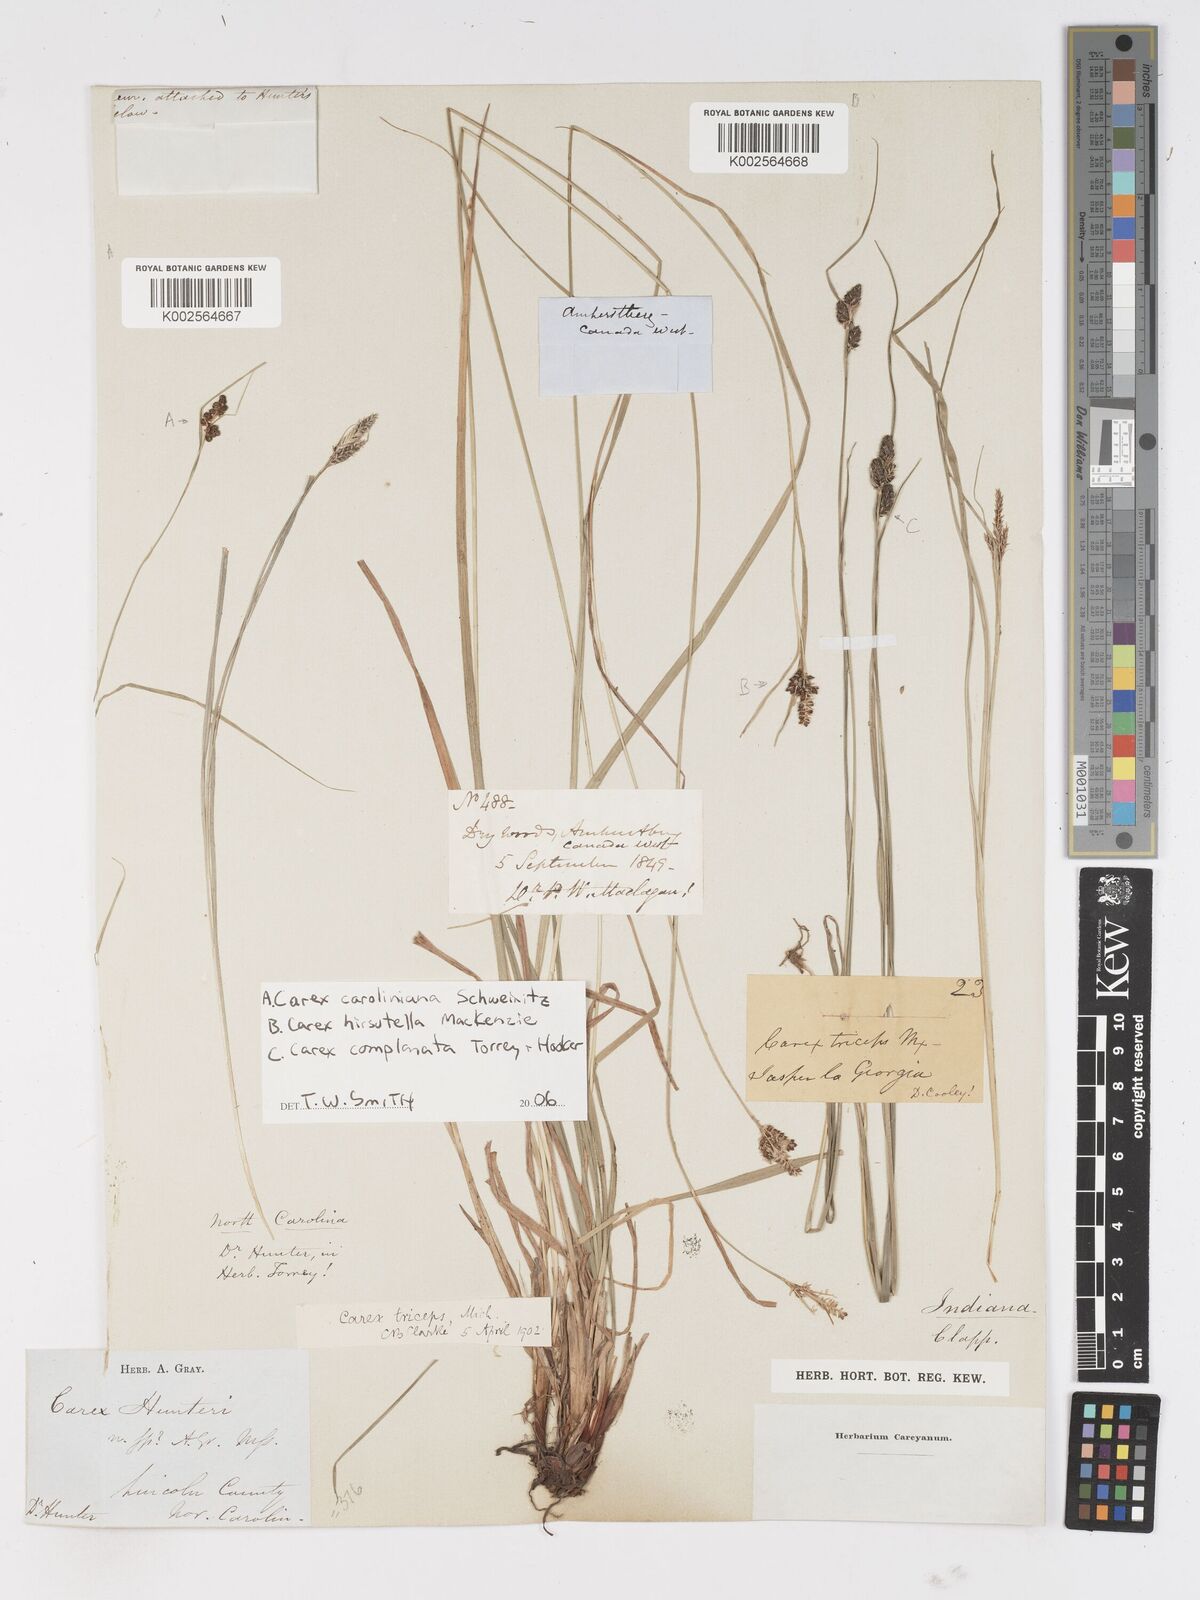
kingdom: Plantae
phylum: Tracheophyta
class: Liliopsida
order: Poales
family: Cyperaceae
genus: Carex
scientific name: Carex
